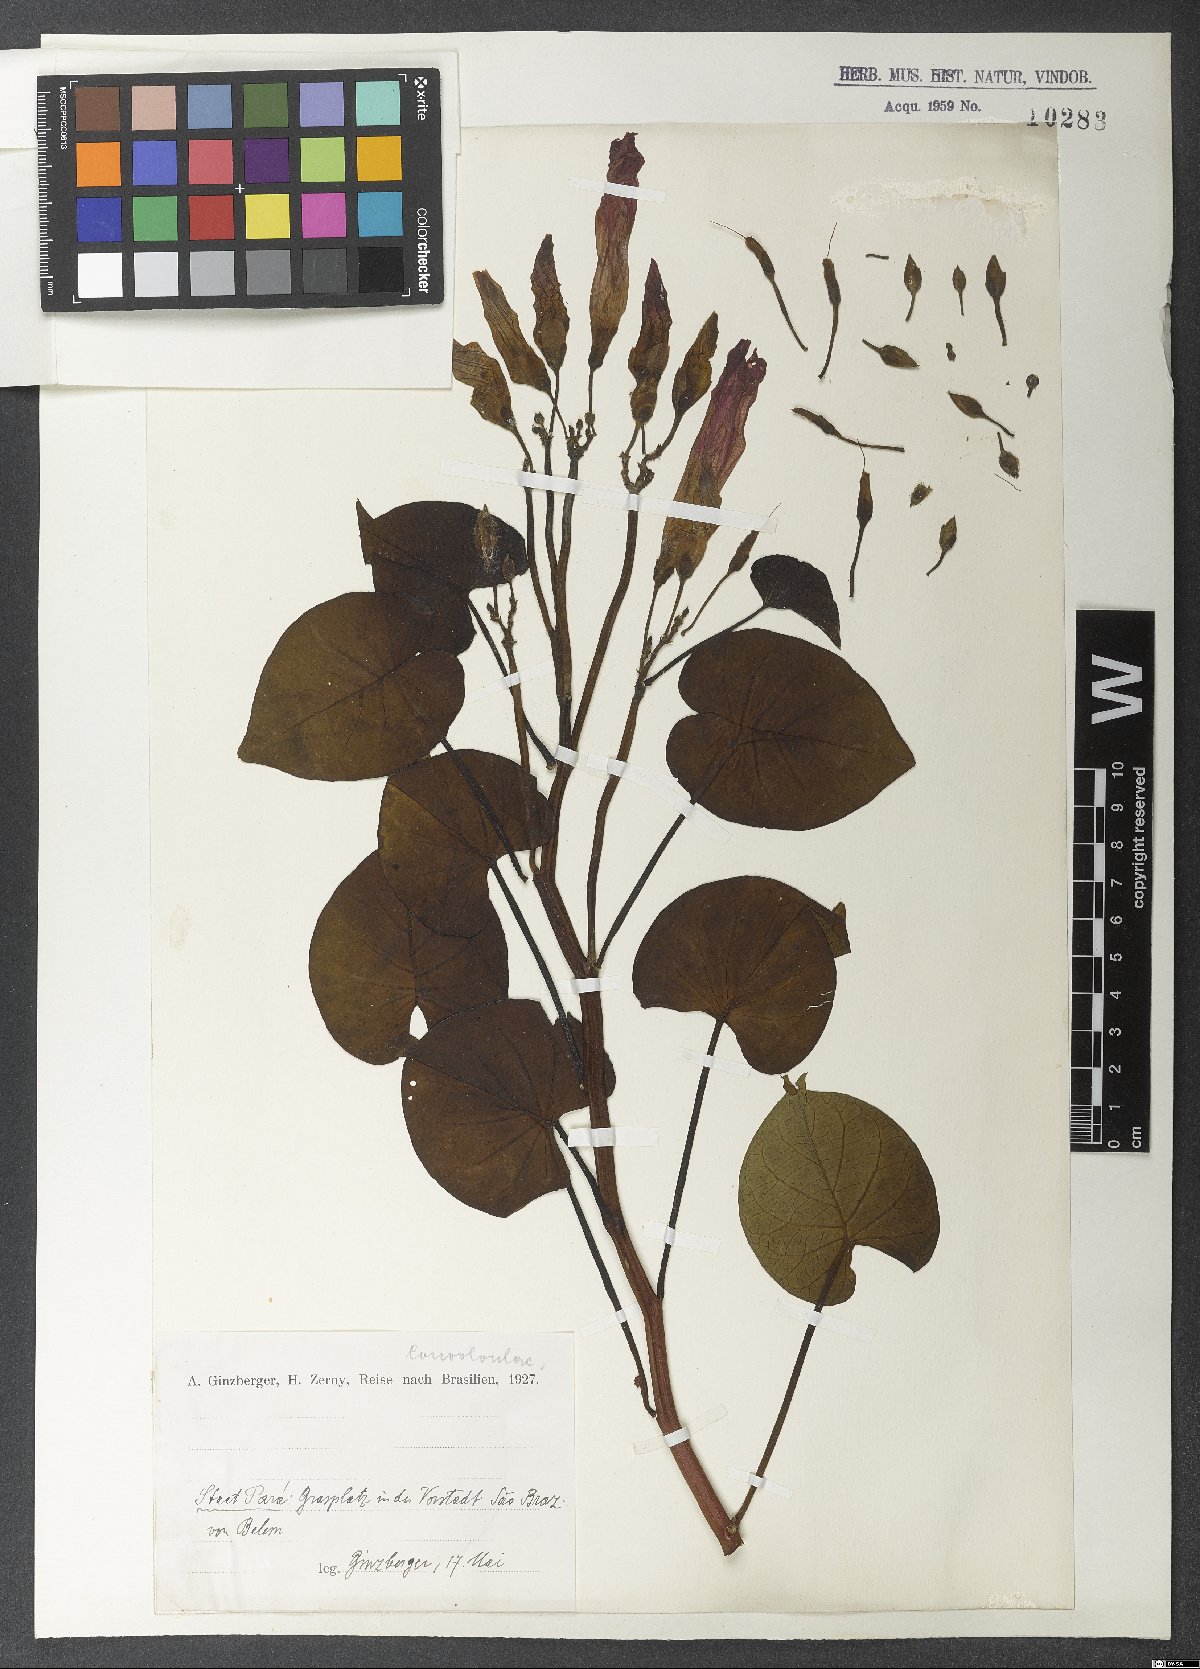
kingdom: Plantae
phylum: Tracheophyta
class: Magnoliopsida
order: Solanales
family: Convolvulaceae
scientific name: Convolvulaceae
